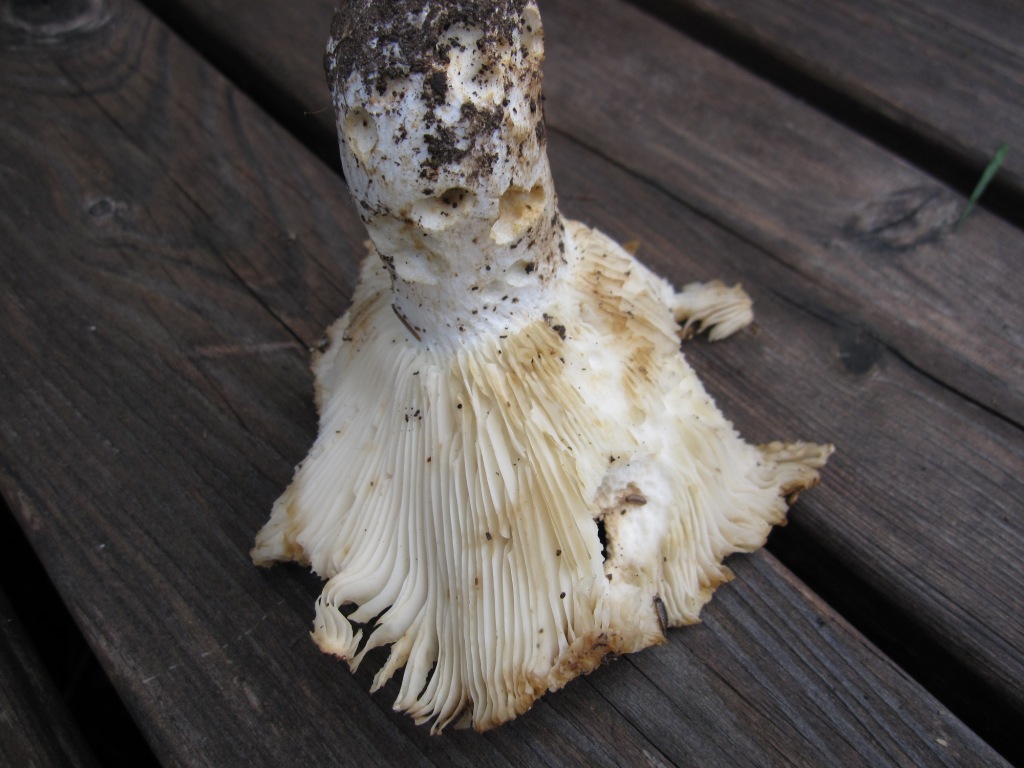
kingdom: Fungi
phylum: Basidiomycota
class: Agaricomycetes
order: Russulales
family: Russulaceae
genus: Russula
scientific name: Russula delica
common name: almindelig tragt-skørhat
